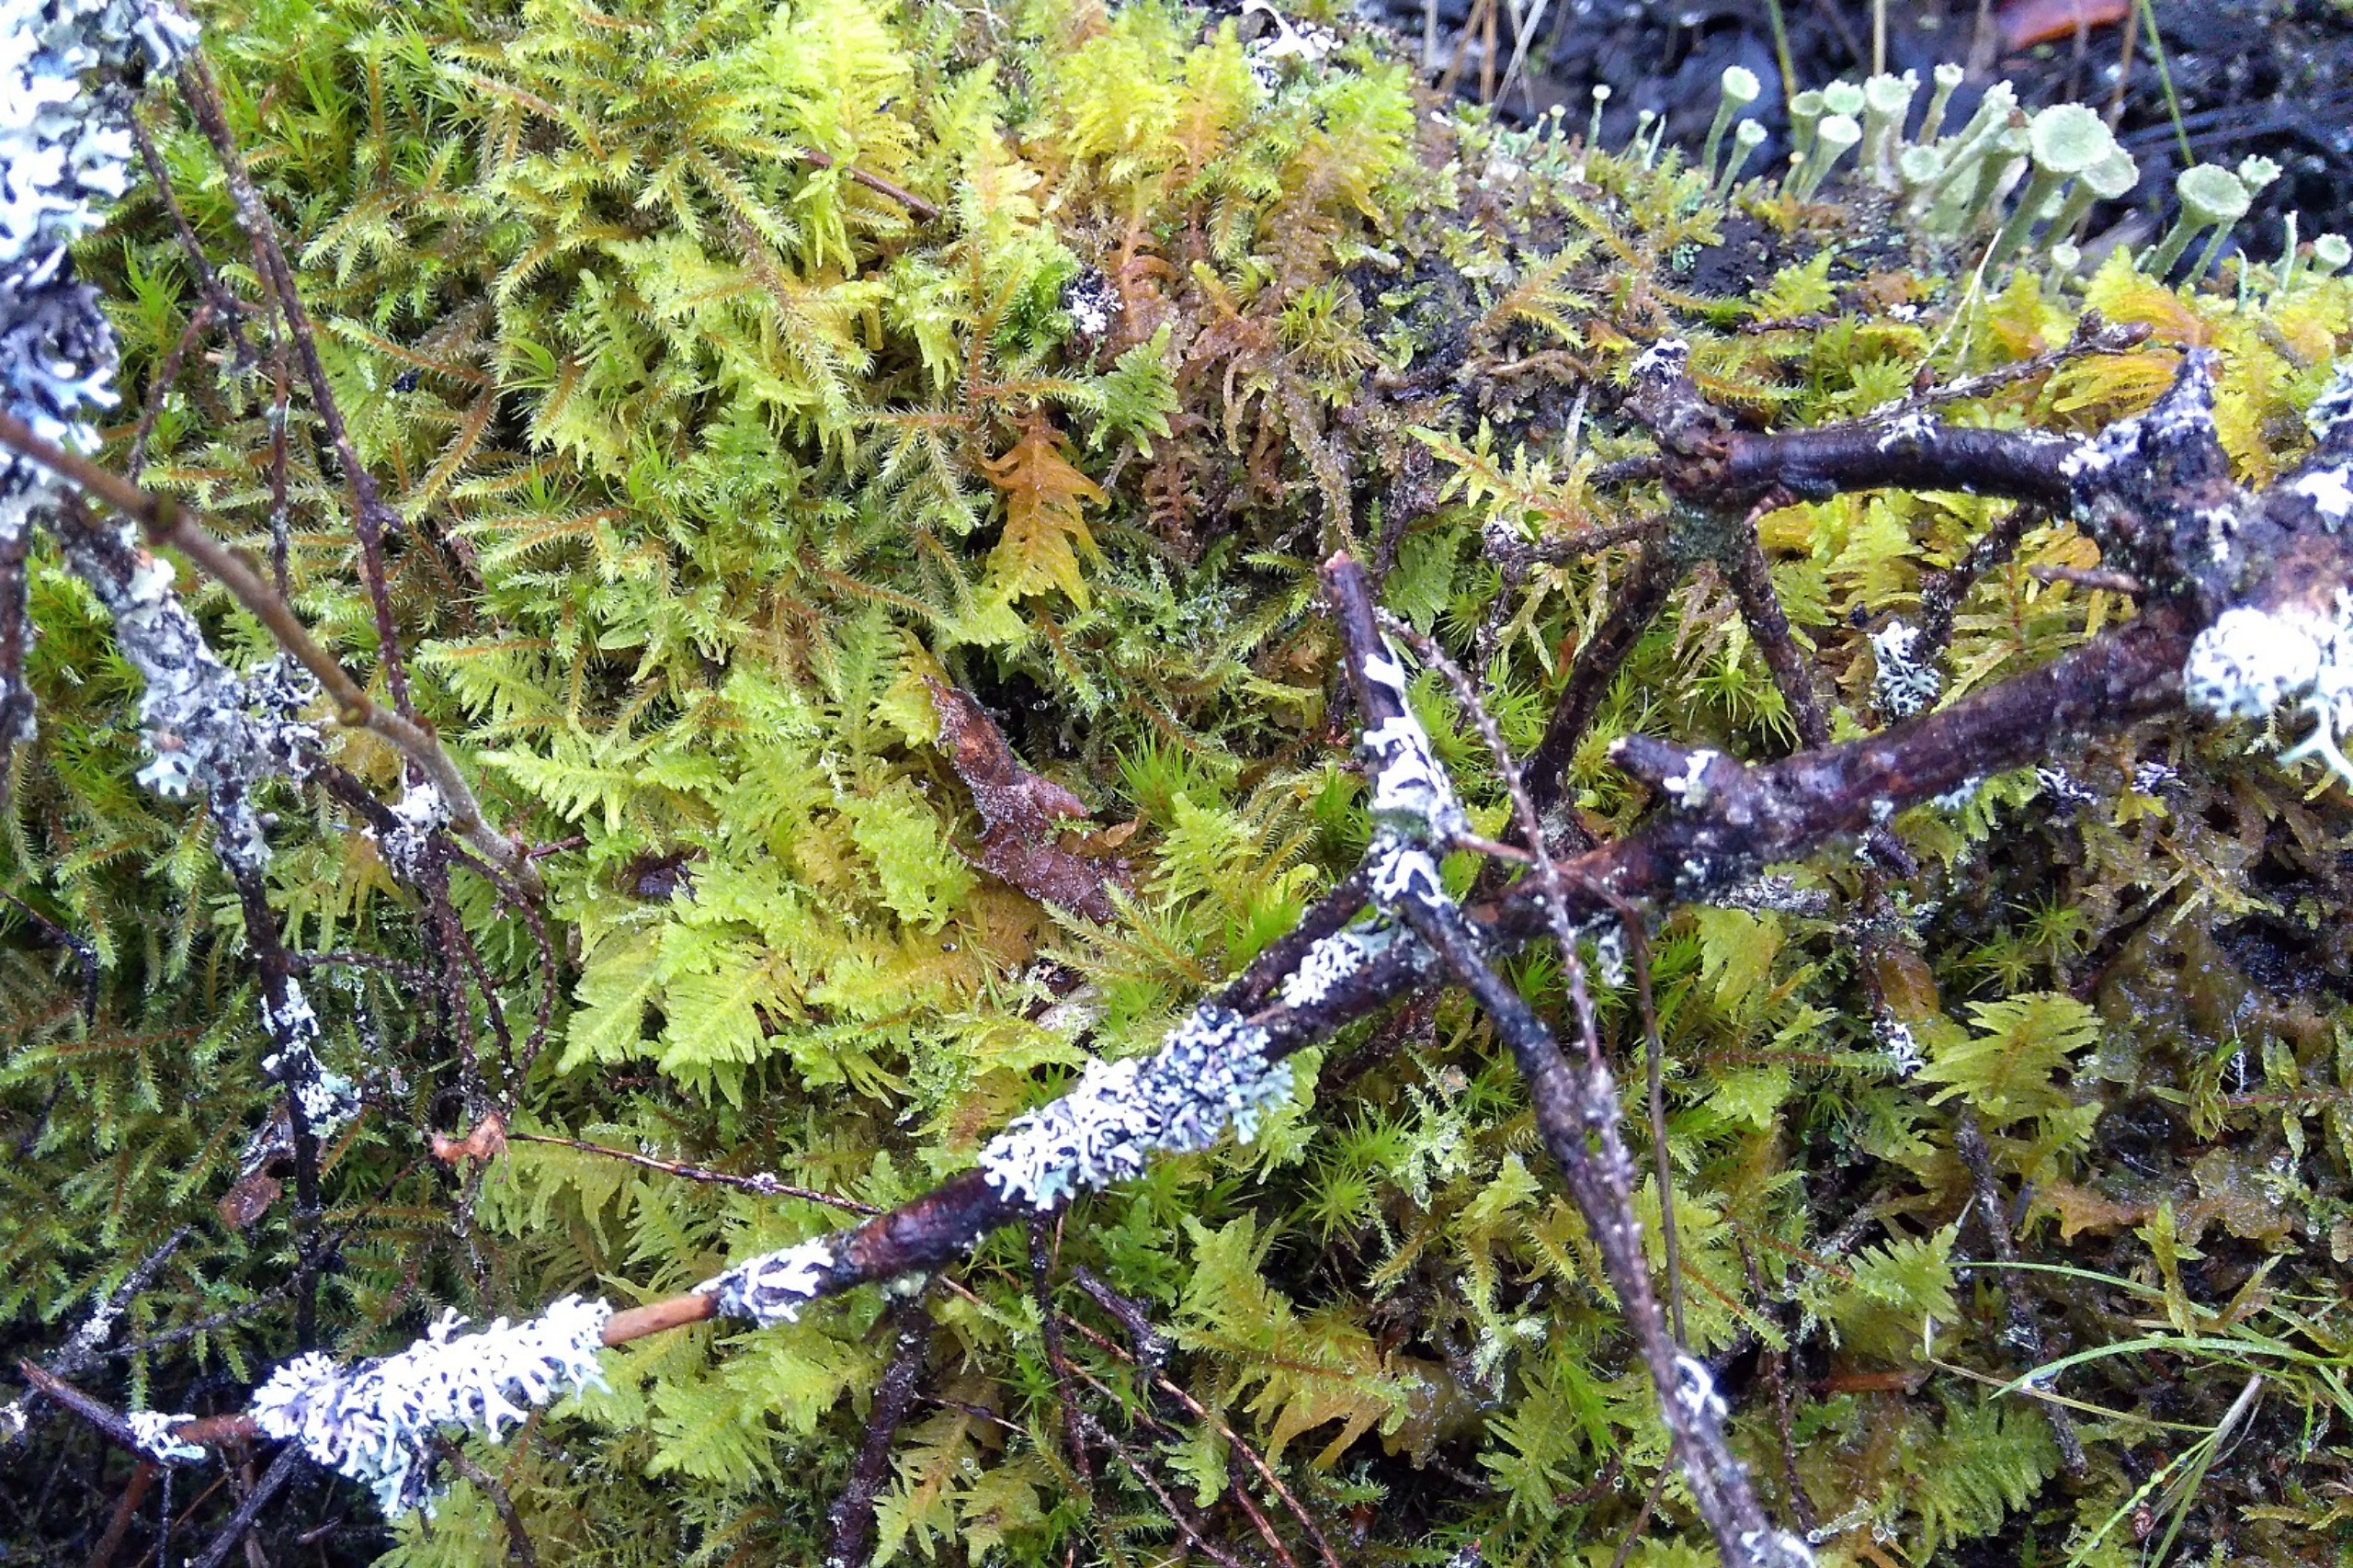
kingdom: Plantae
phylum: Bryophyta
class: Bryopsida
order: Hypnales
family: Pylaisiaceae
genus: Ptilium
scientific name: Ptilium crista-castrensis
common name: Fjer-kammos
